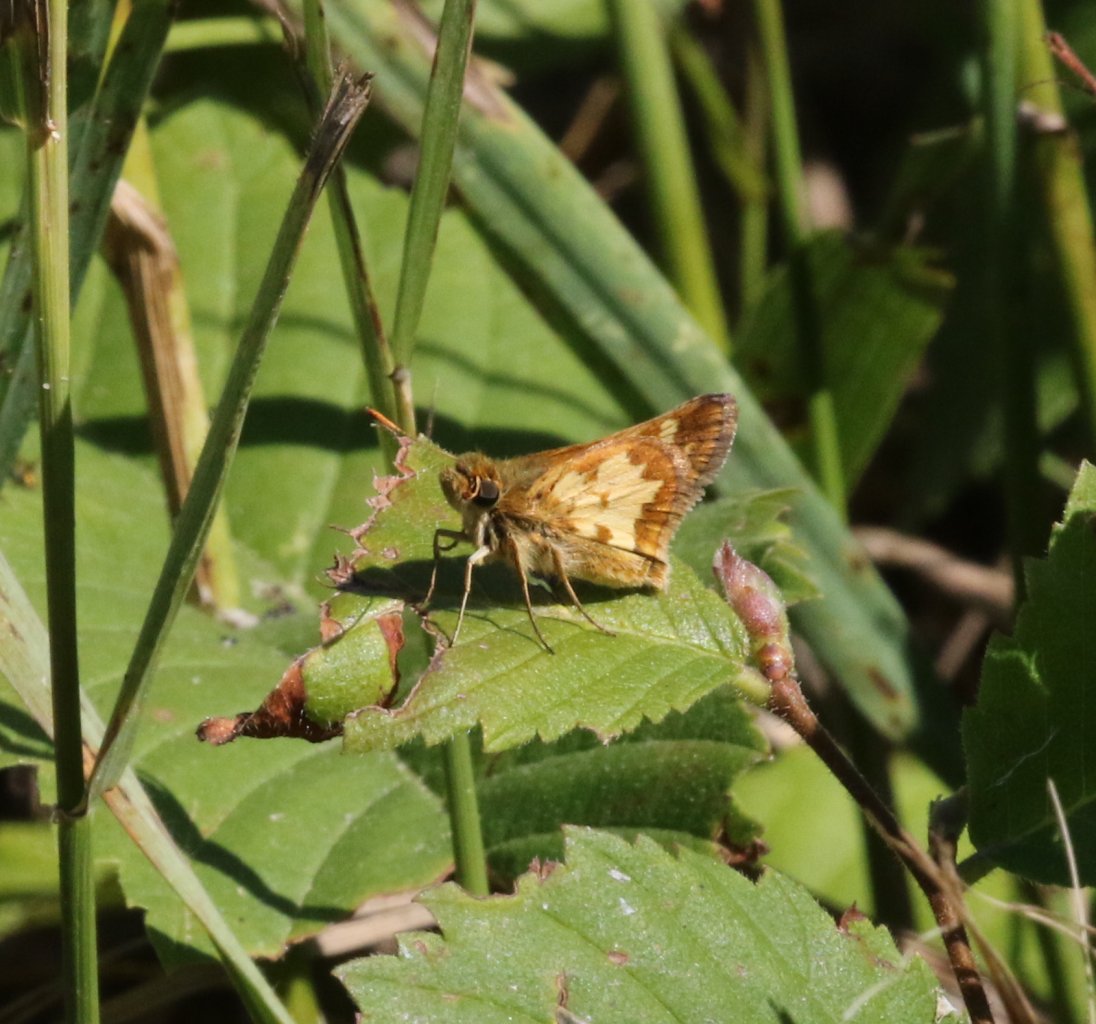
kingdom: Animalia
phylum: Arthropoda
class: Insecta
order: Lepidoptera
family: Hesperiidae
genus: Polites
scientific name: Polites coras
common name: Peck's Skipper
